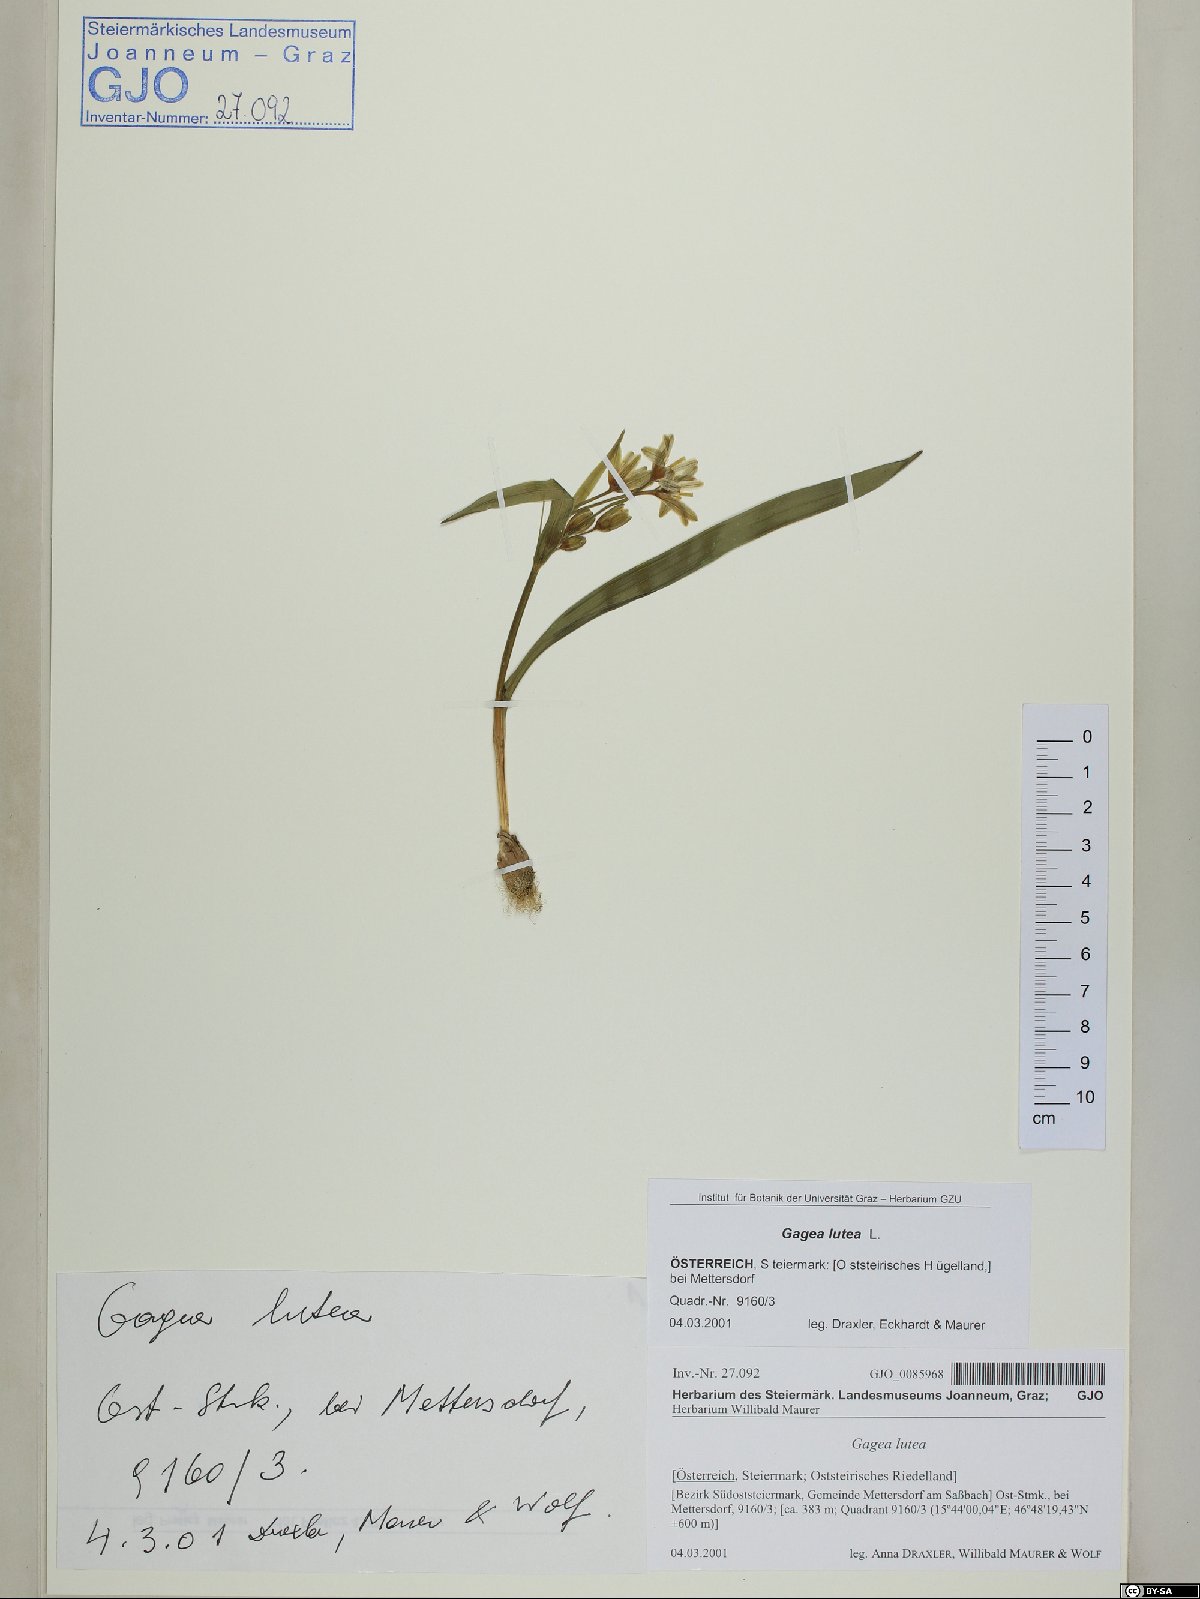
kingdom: Plantae
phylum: Tracheophyta
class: Liliopsida
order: Liliales
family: Liliaceae
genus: Gagea
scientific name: Gagea lutea
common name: Yellow star-of-bethlehem
